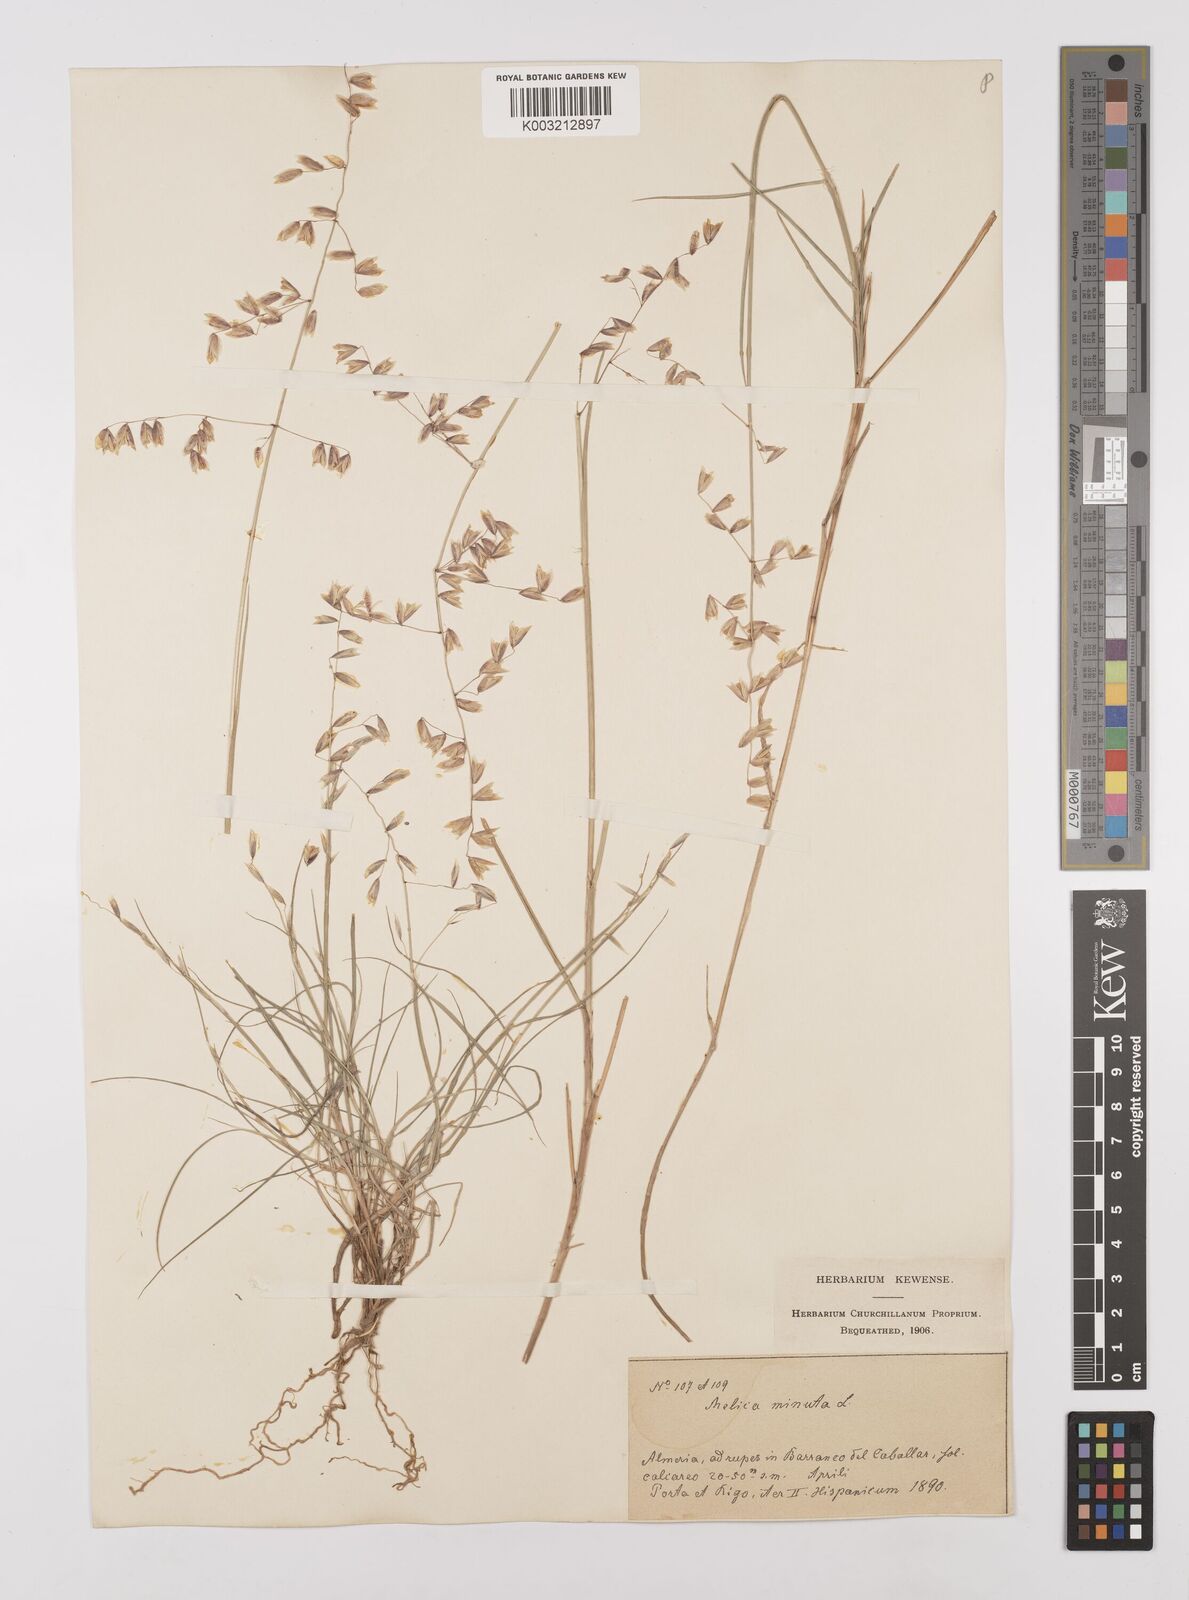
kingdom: Plantae
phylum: Tracheophyta
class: Liliopsida
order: Poales
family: Poaceae
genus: Melica
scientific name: Melica minuta
